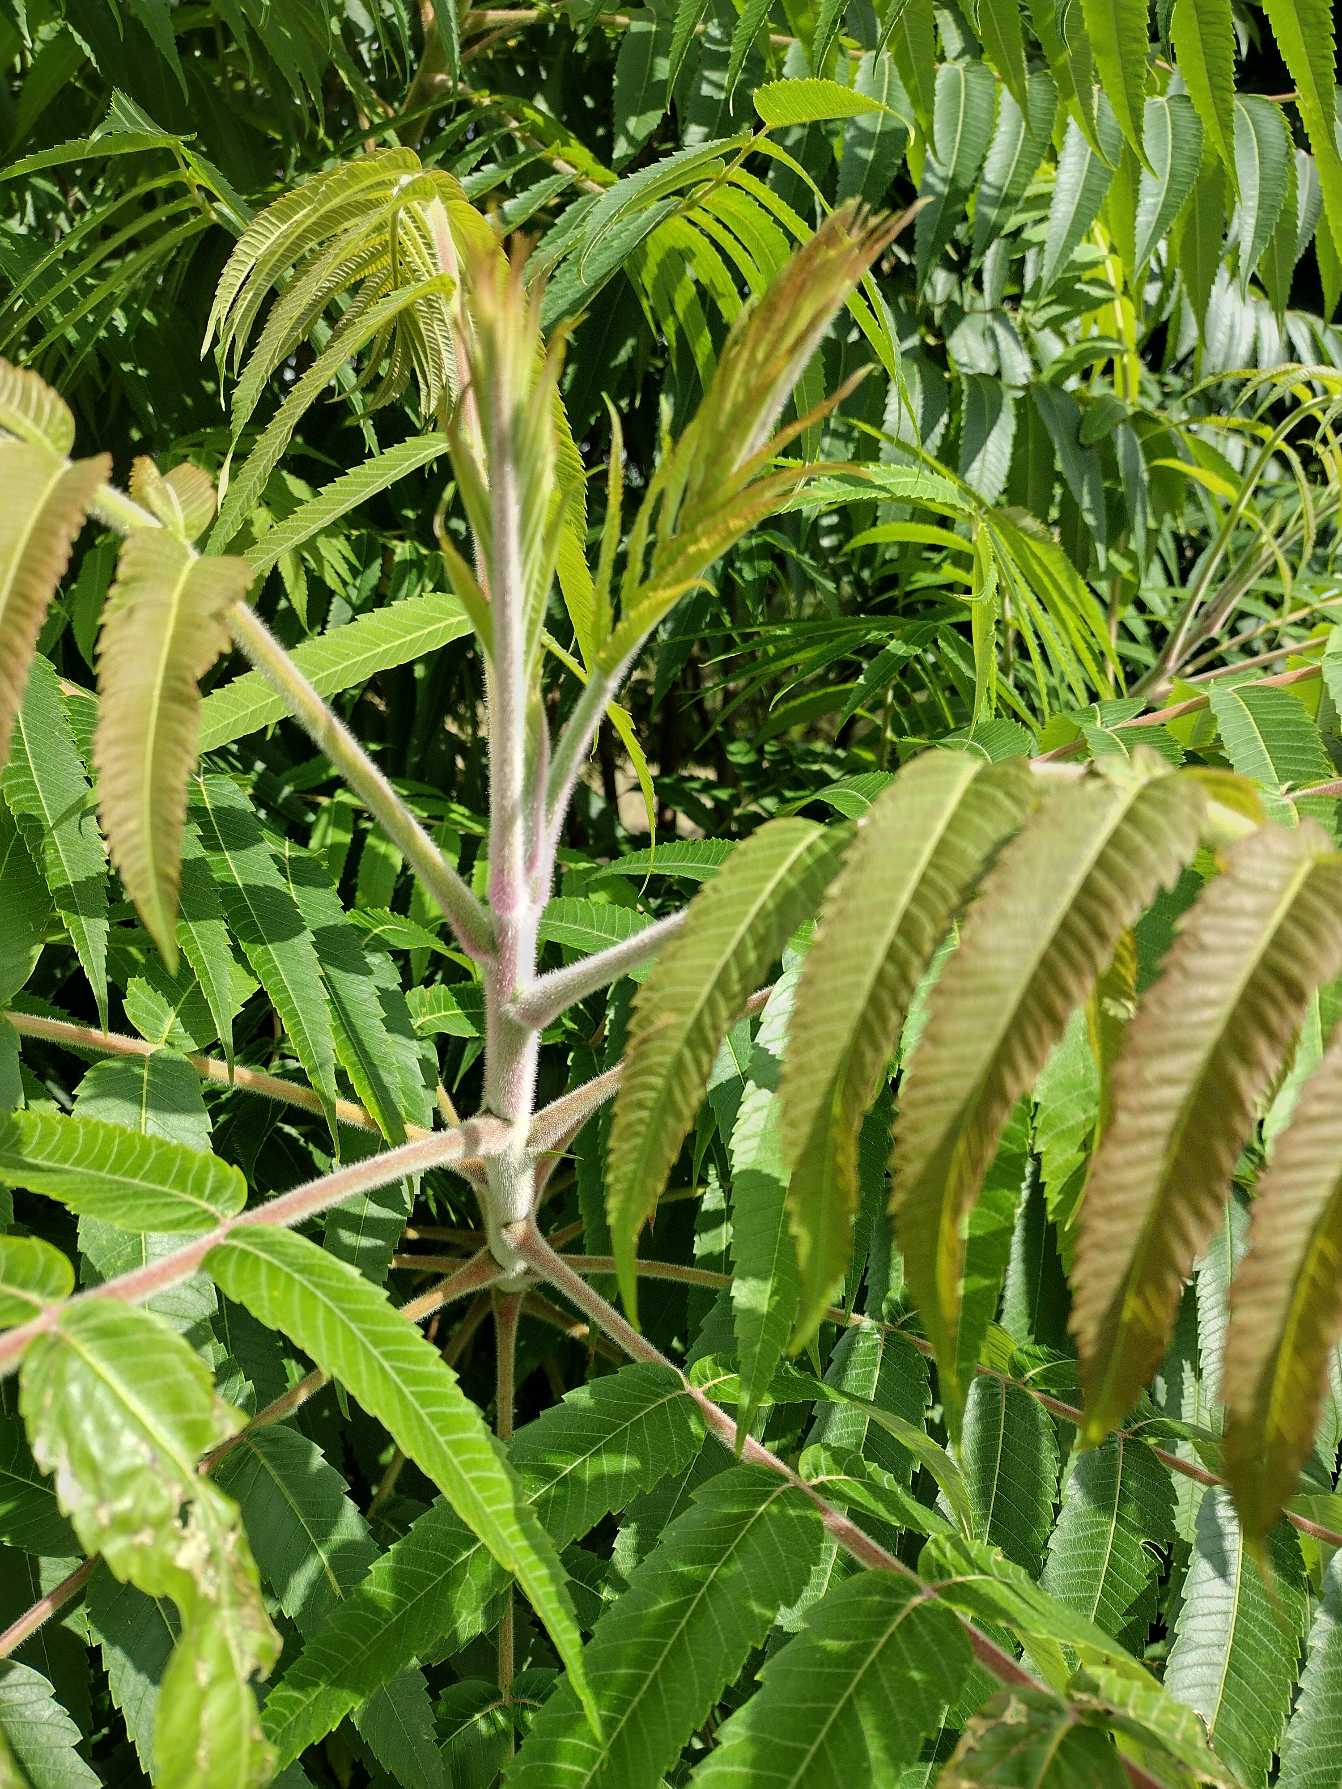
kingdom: Plantae
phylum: Tracheophyta
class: Magnoliopsida
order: Sapindales
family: Anacardiaceae
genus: Rhus
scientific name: Rhus typhina
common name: Hjortetaktræ
